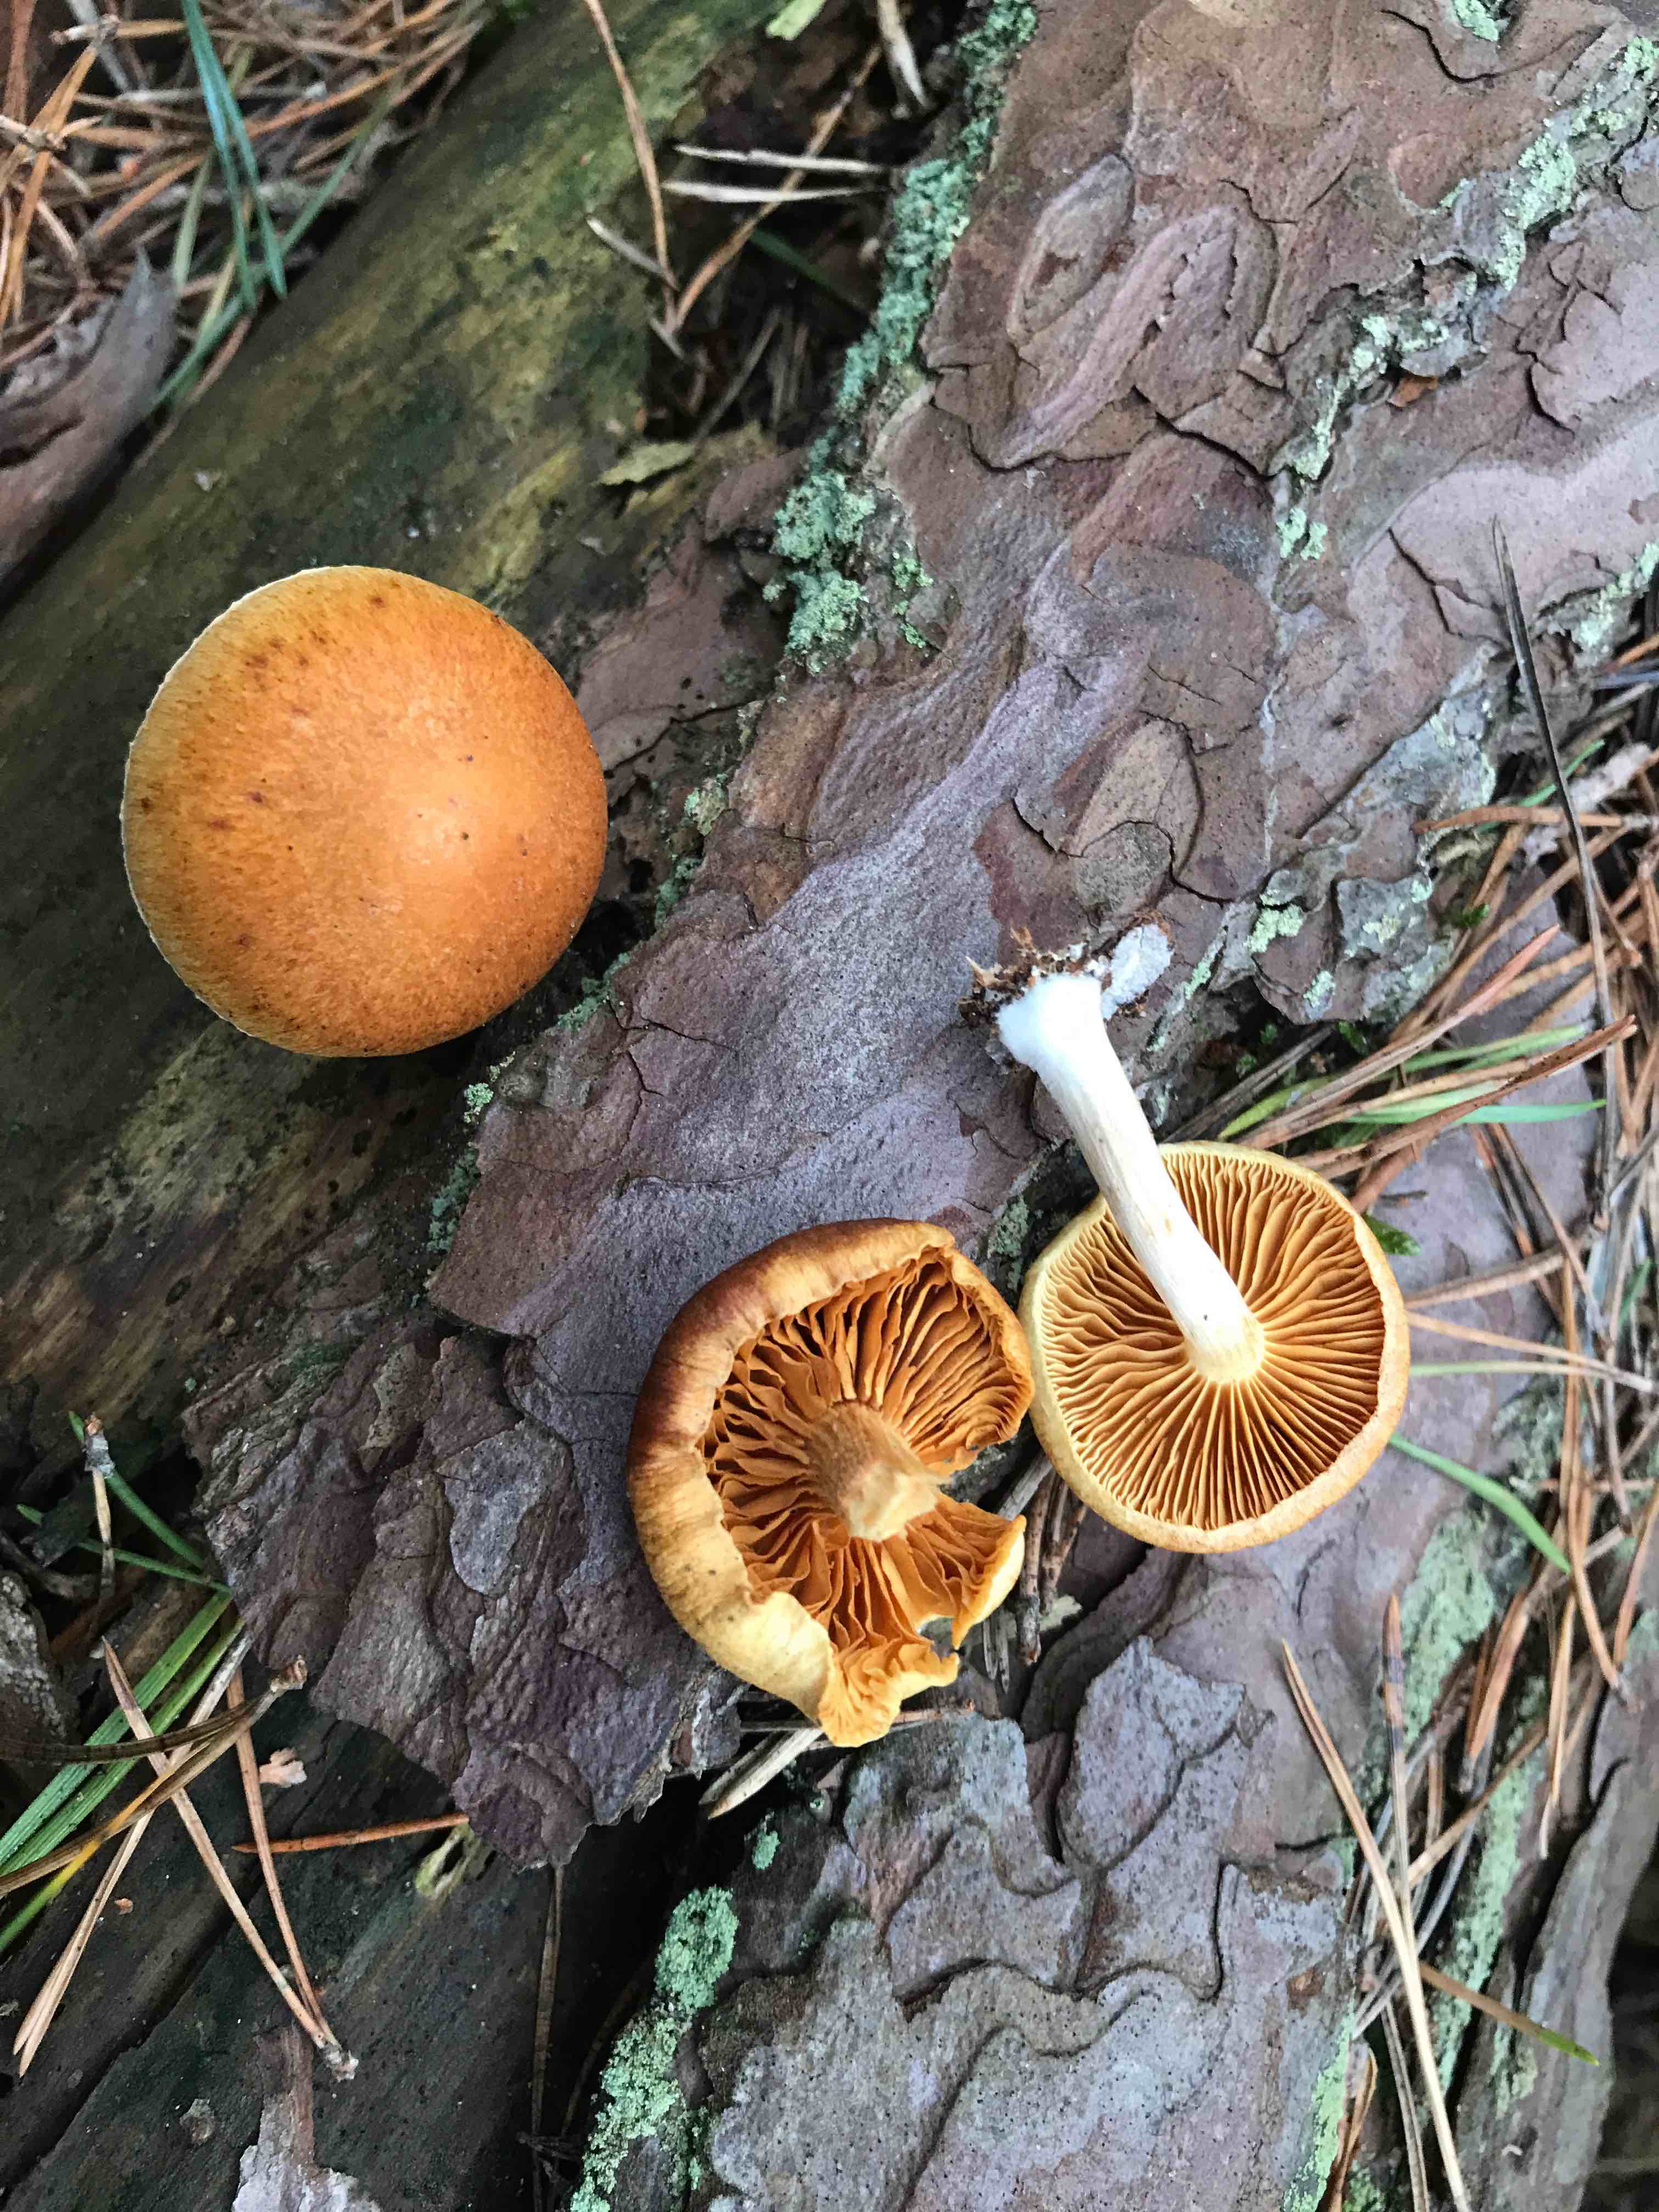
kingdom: Fungi
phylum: Basidiomycota
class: Agaricomycetes
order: Agaricales
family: Hymenogastraceae
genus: Gymnopilus
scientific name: Gymnopilus penetrans
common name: plettet flammehat
